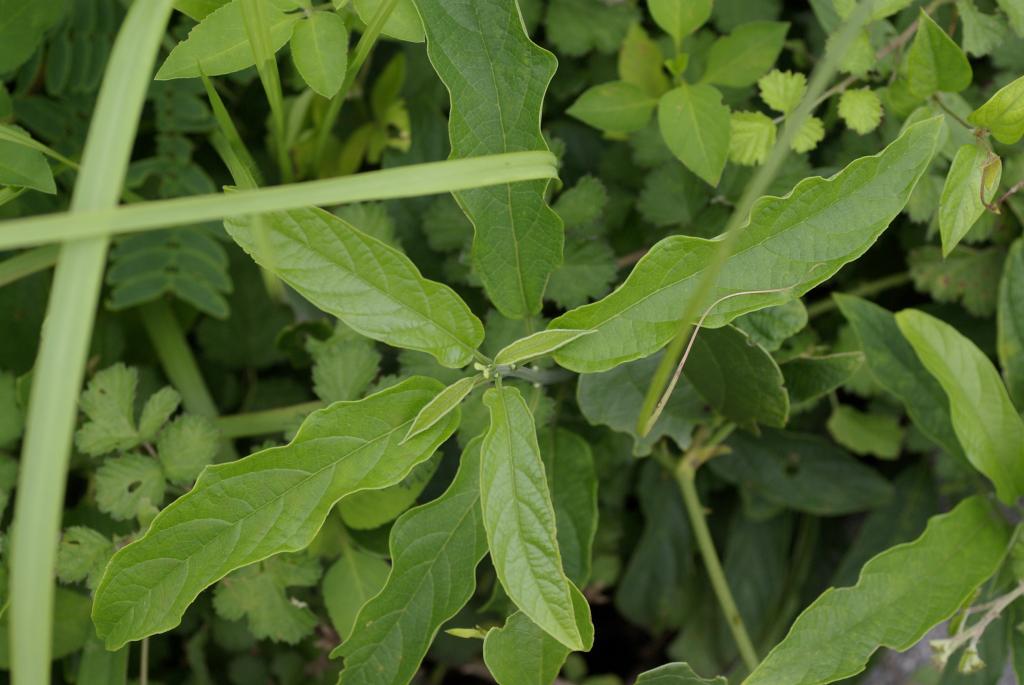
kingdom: Plantae
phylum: Tracheophyta
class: Magnoliopsida
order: Lamiales
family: Lamiaceae
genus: Clerodendrum
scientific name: Clerodendrum cyrtophyllum
